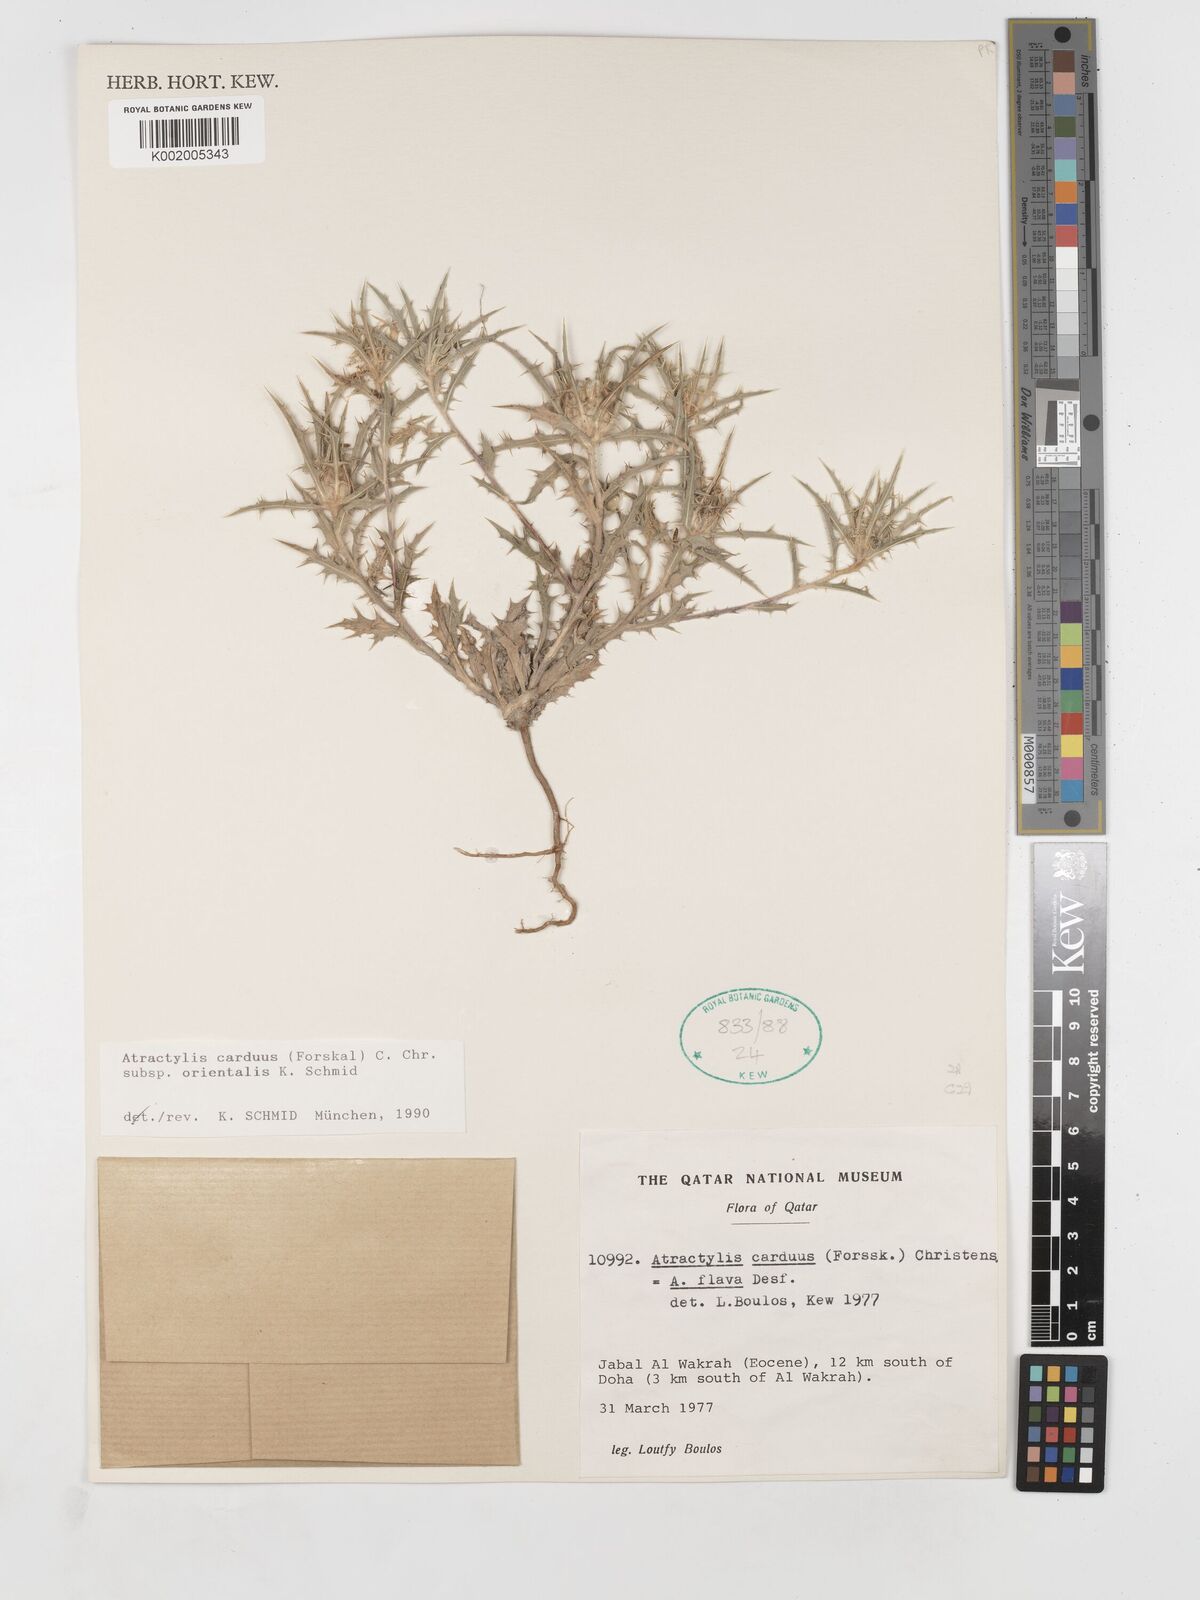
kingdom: Plantae
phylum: Tracheophyta
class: Magnoliopsida
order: Asterales
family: Asteraceae
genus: Atractylis
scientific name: Atractylis carduus
